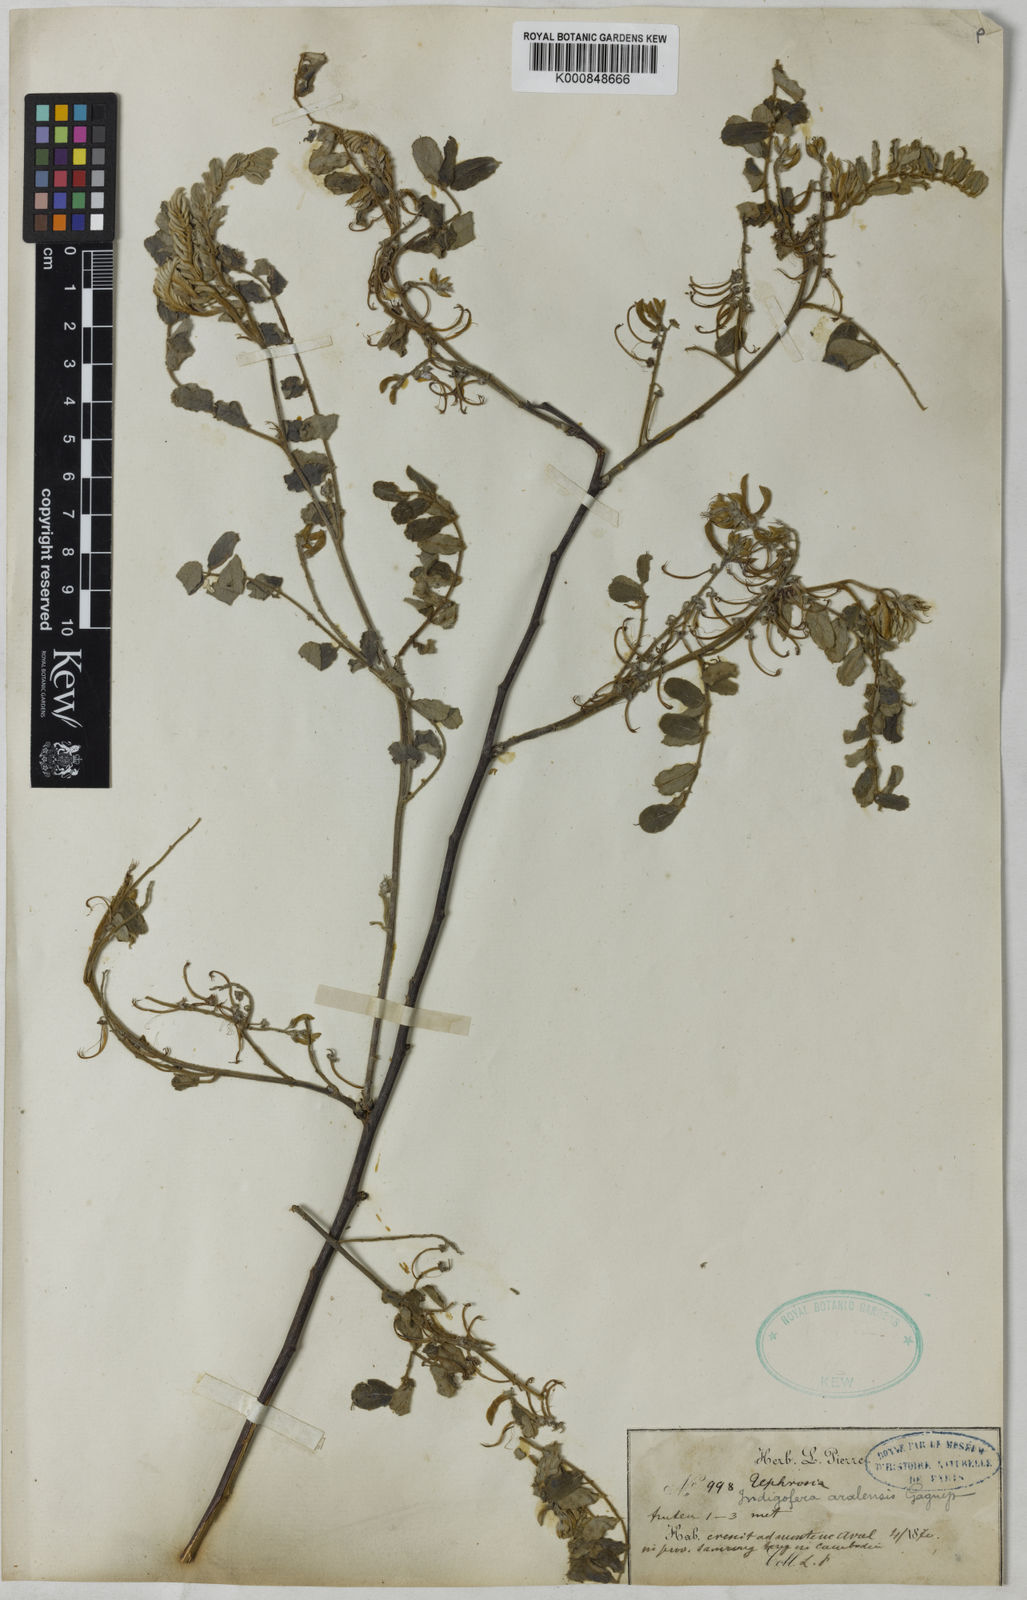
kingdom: Plantae
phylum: Tracheophyta
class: Magnoliopsida
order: Fabales
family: Fabaceae
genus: Indigofera
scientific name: Indigofera aralensis
